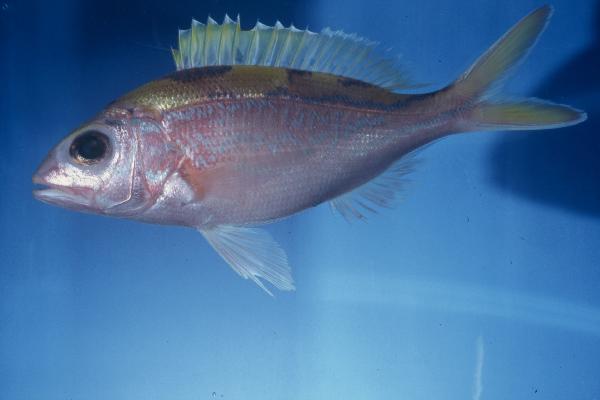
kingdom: Animalia
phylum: Chordata
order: Perciformes
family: Lutjanidae
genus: Pristipomoides
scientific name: Pristipomoides argyrogrammicus
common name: Big-eyed snapper
